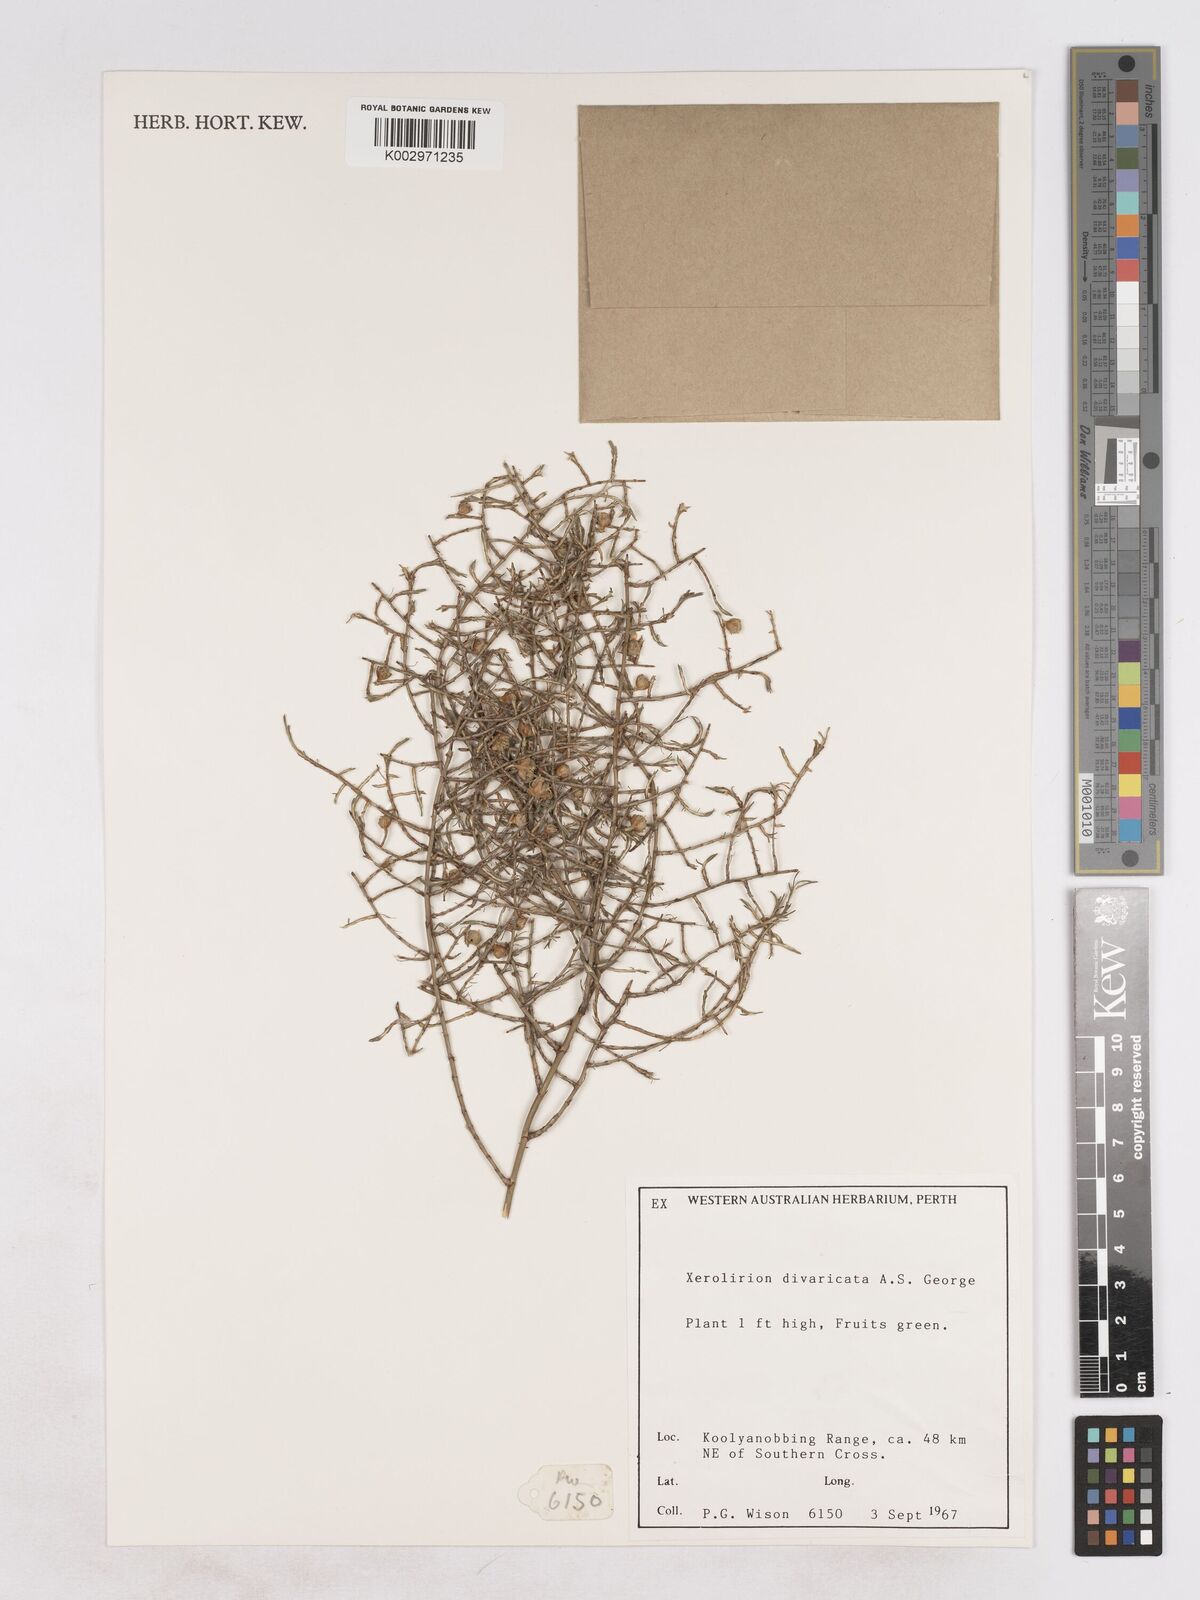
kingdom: Plantae
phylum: Tracheophyta
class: Liliopsida
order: Asparagales
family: Asparagaceae
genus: Xerolirion
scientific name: Xerolirion divaricata
